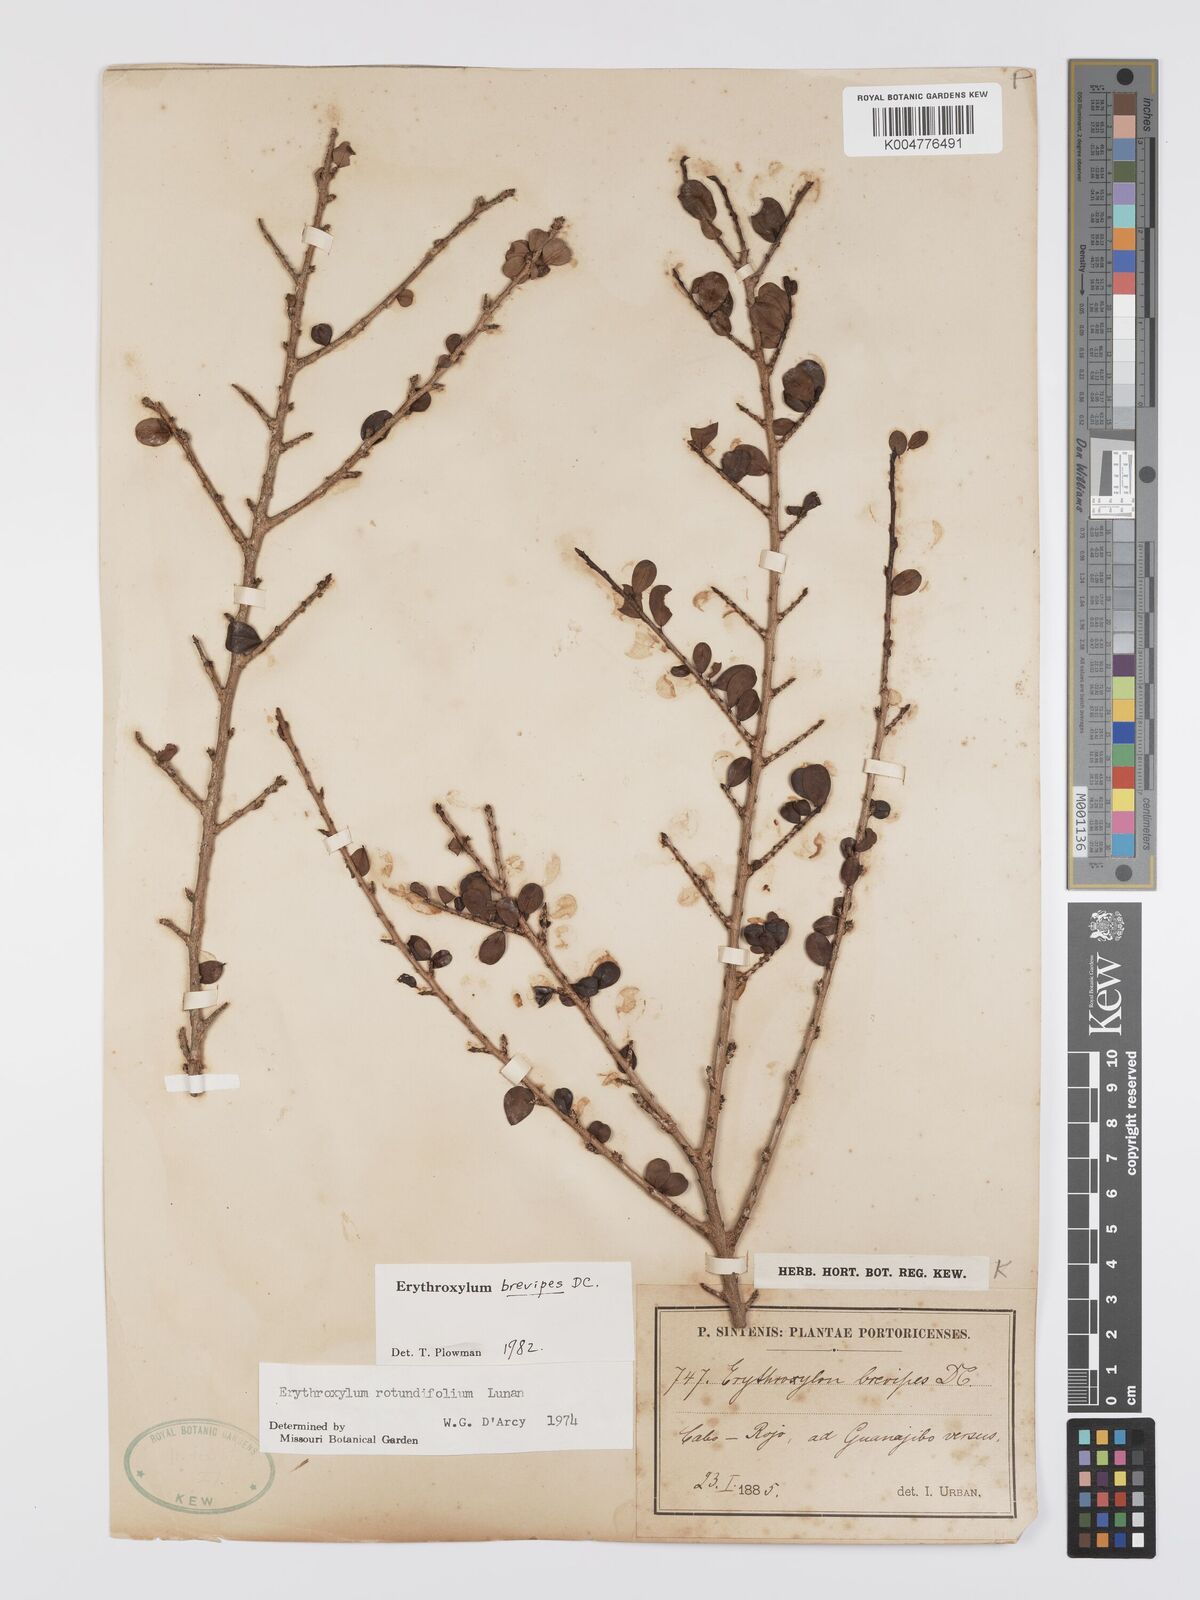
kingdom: Plantae
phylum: Tracheophyta
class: Magnoliopsida
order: Malpighiales
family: Erythroxylaceae
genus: Erythroxylum
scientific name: Erythroxylum brevipes
